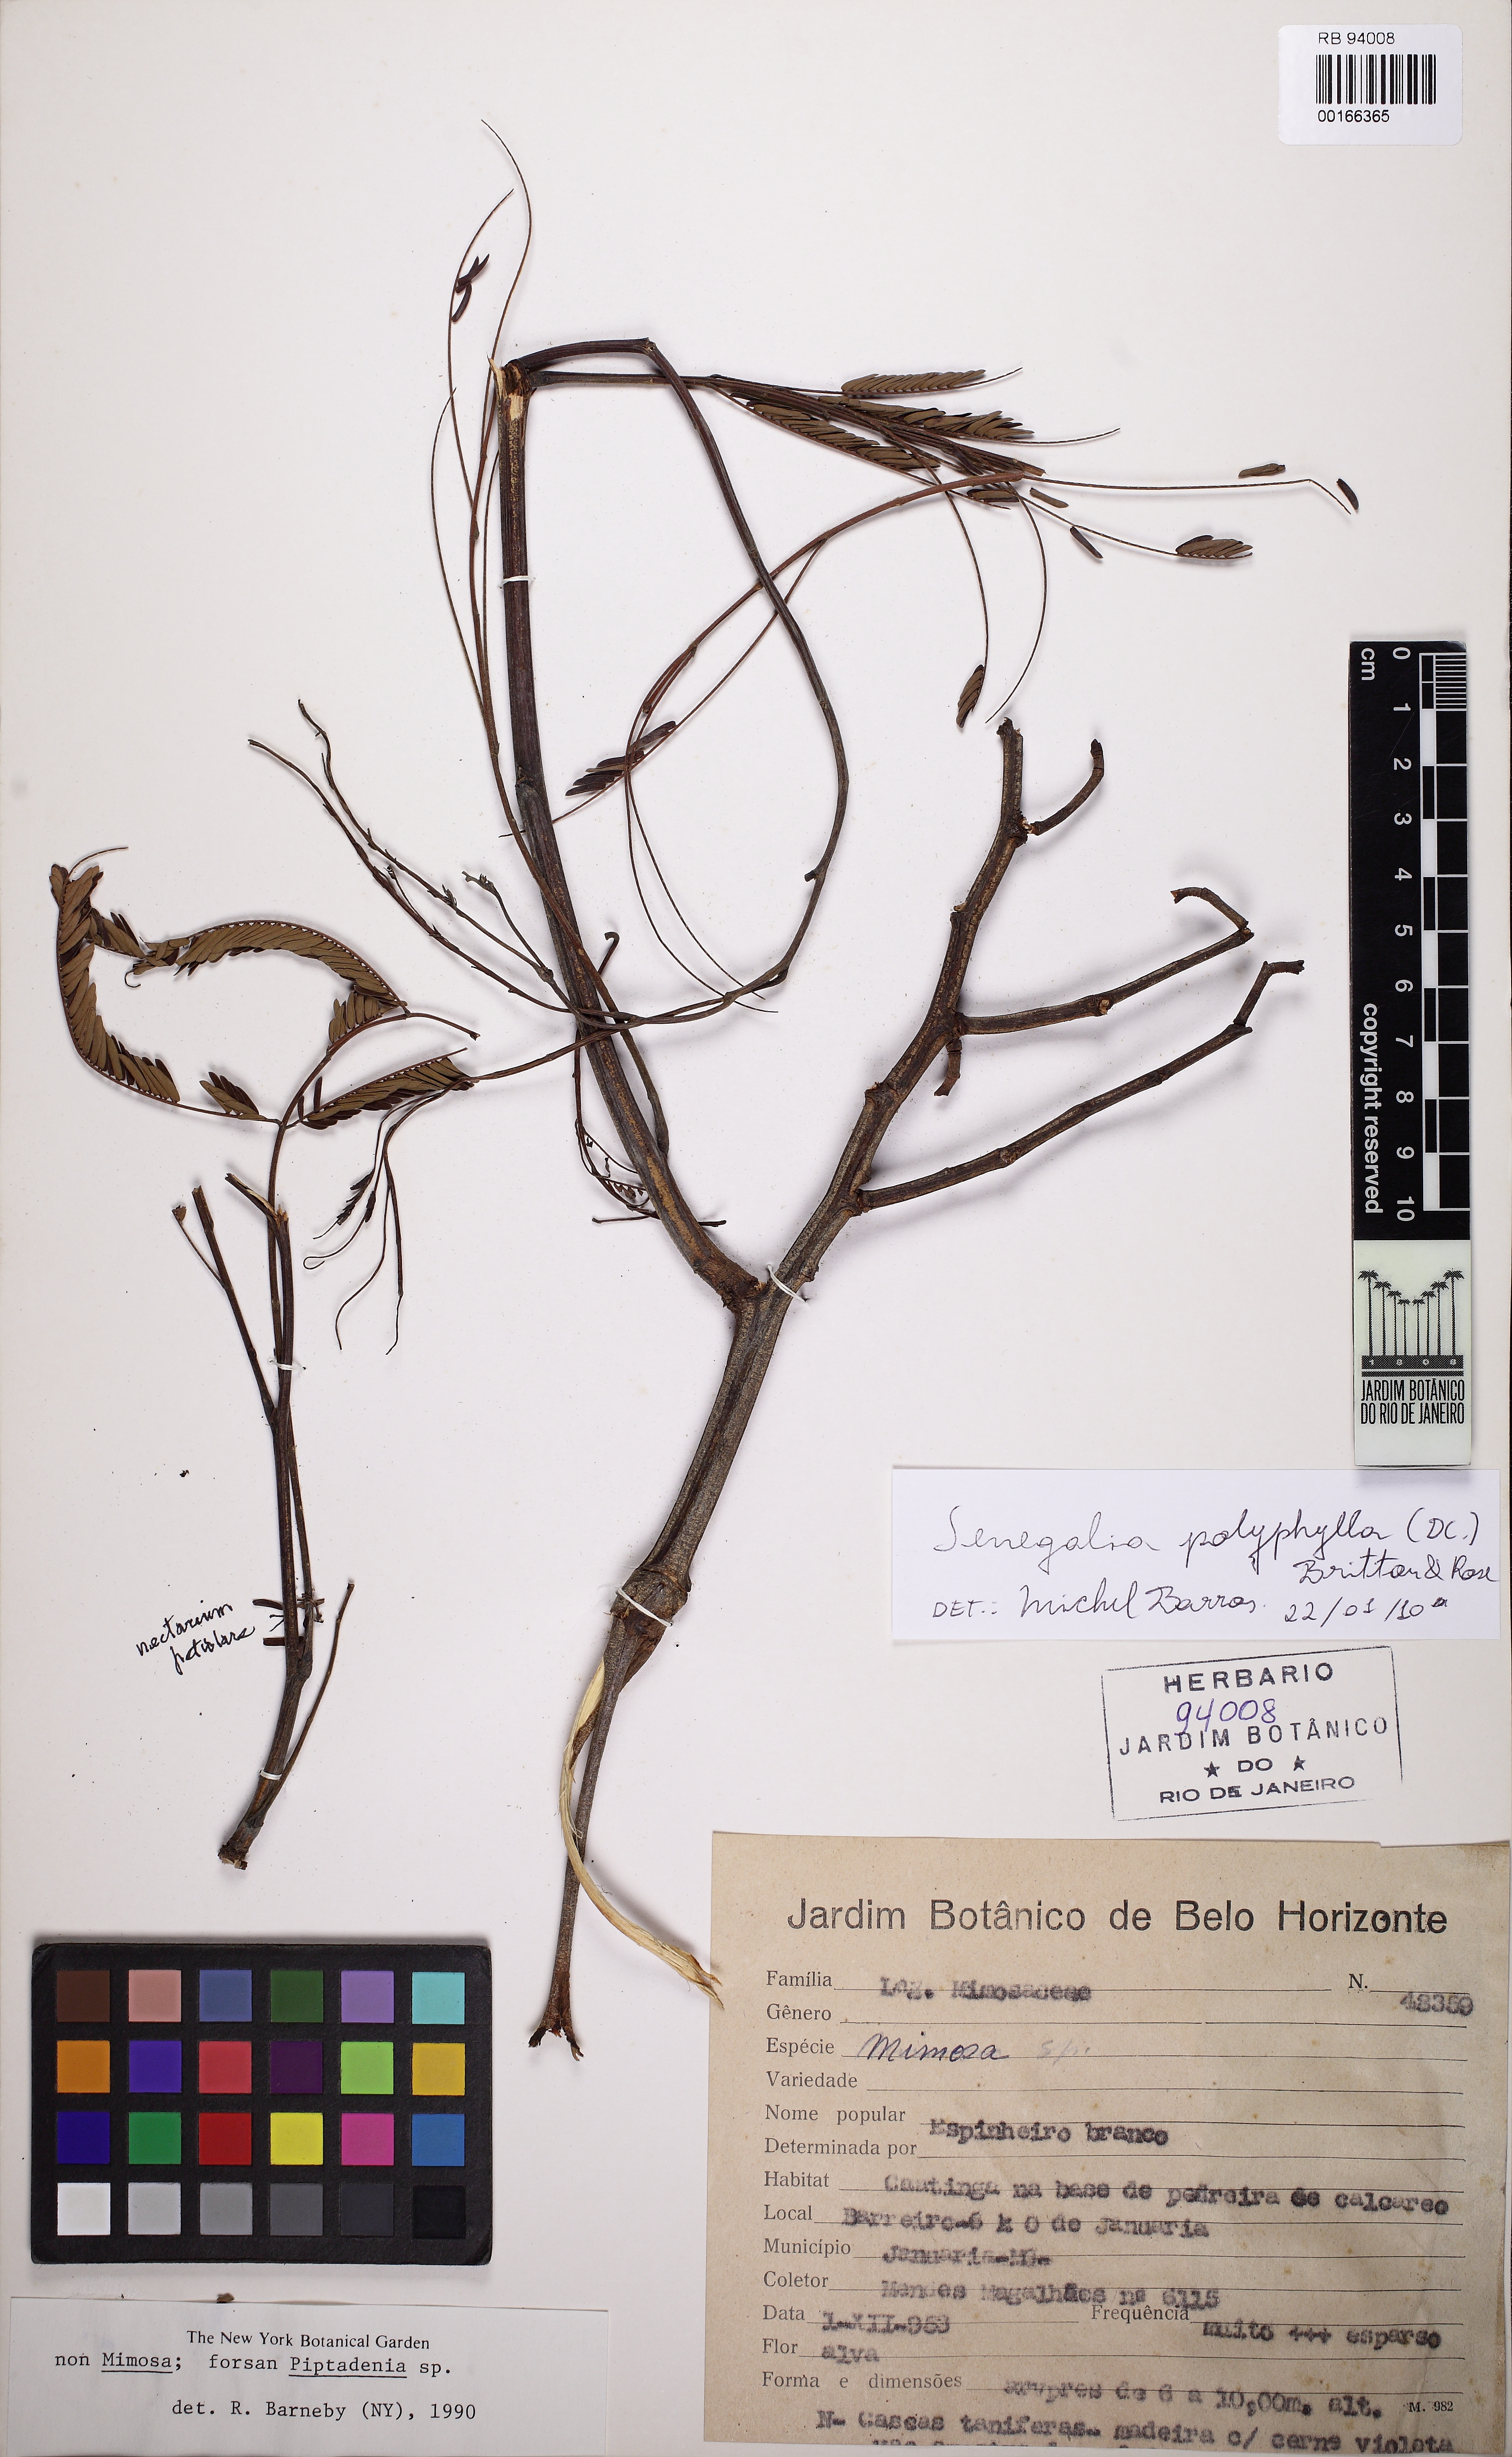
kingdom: Plantae
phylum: Tracheophyta
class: Magnoliopsida
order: Fabales
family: Fabaceae
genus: Senegalia
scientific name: Senegalia polyphylla
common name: White-tamarind
